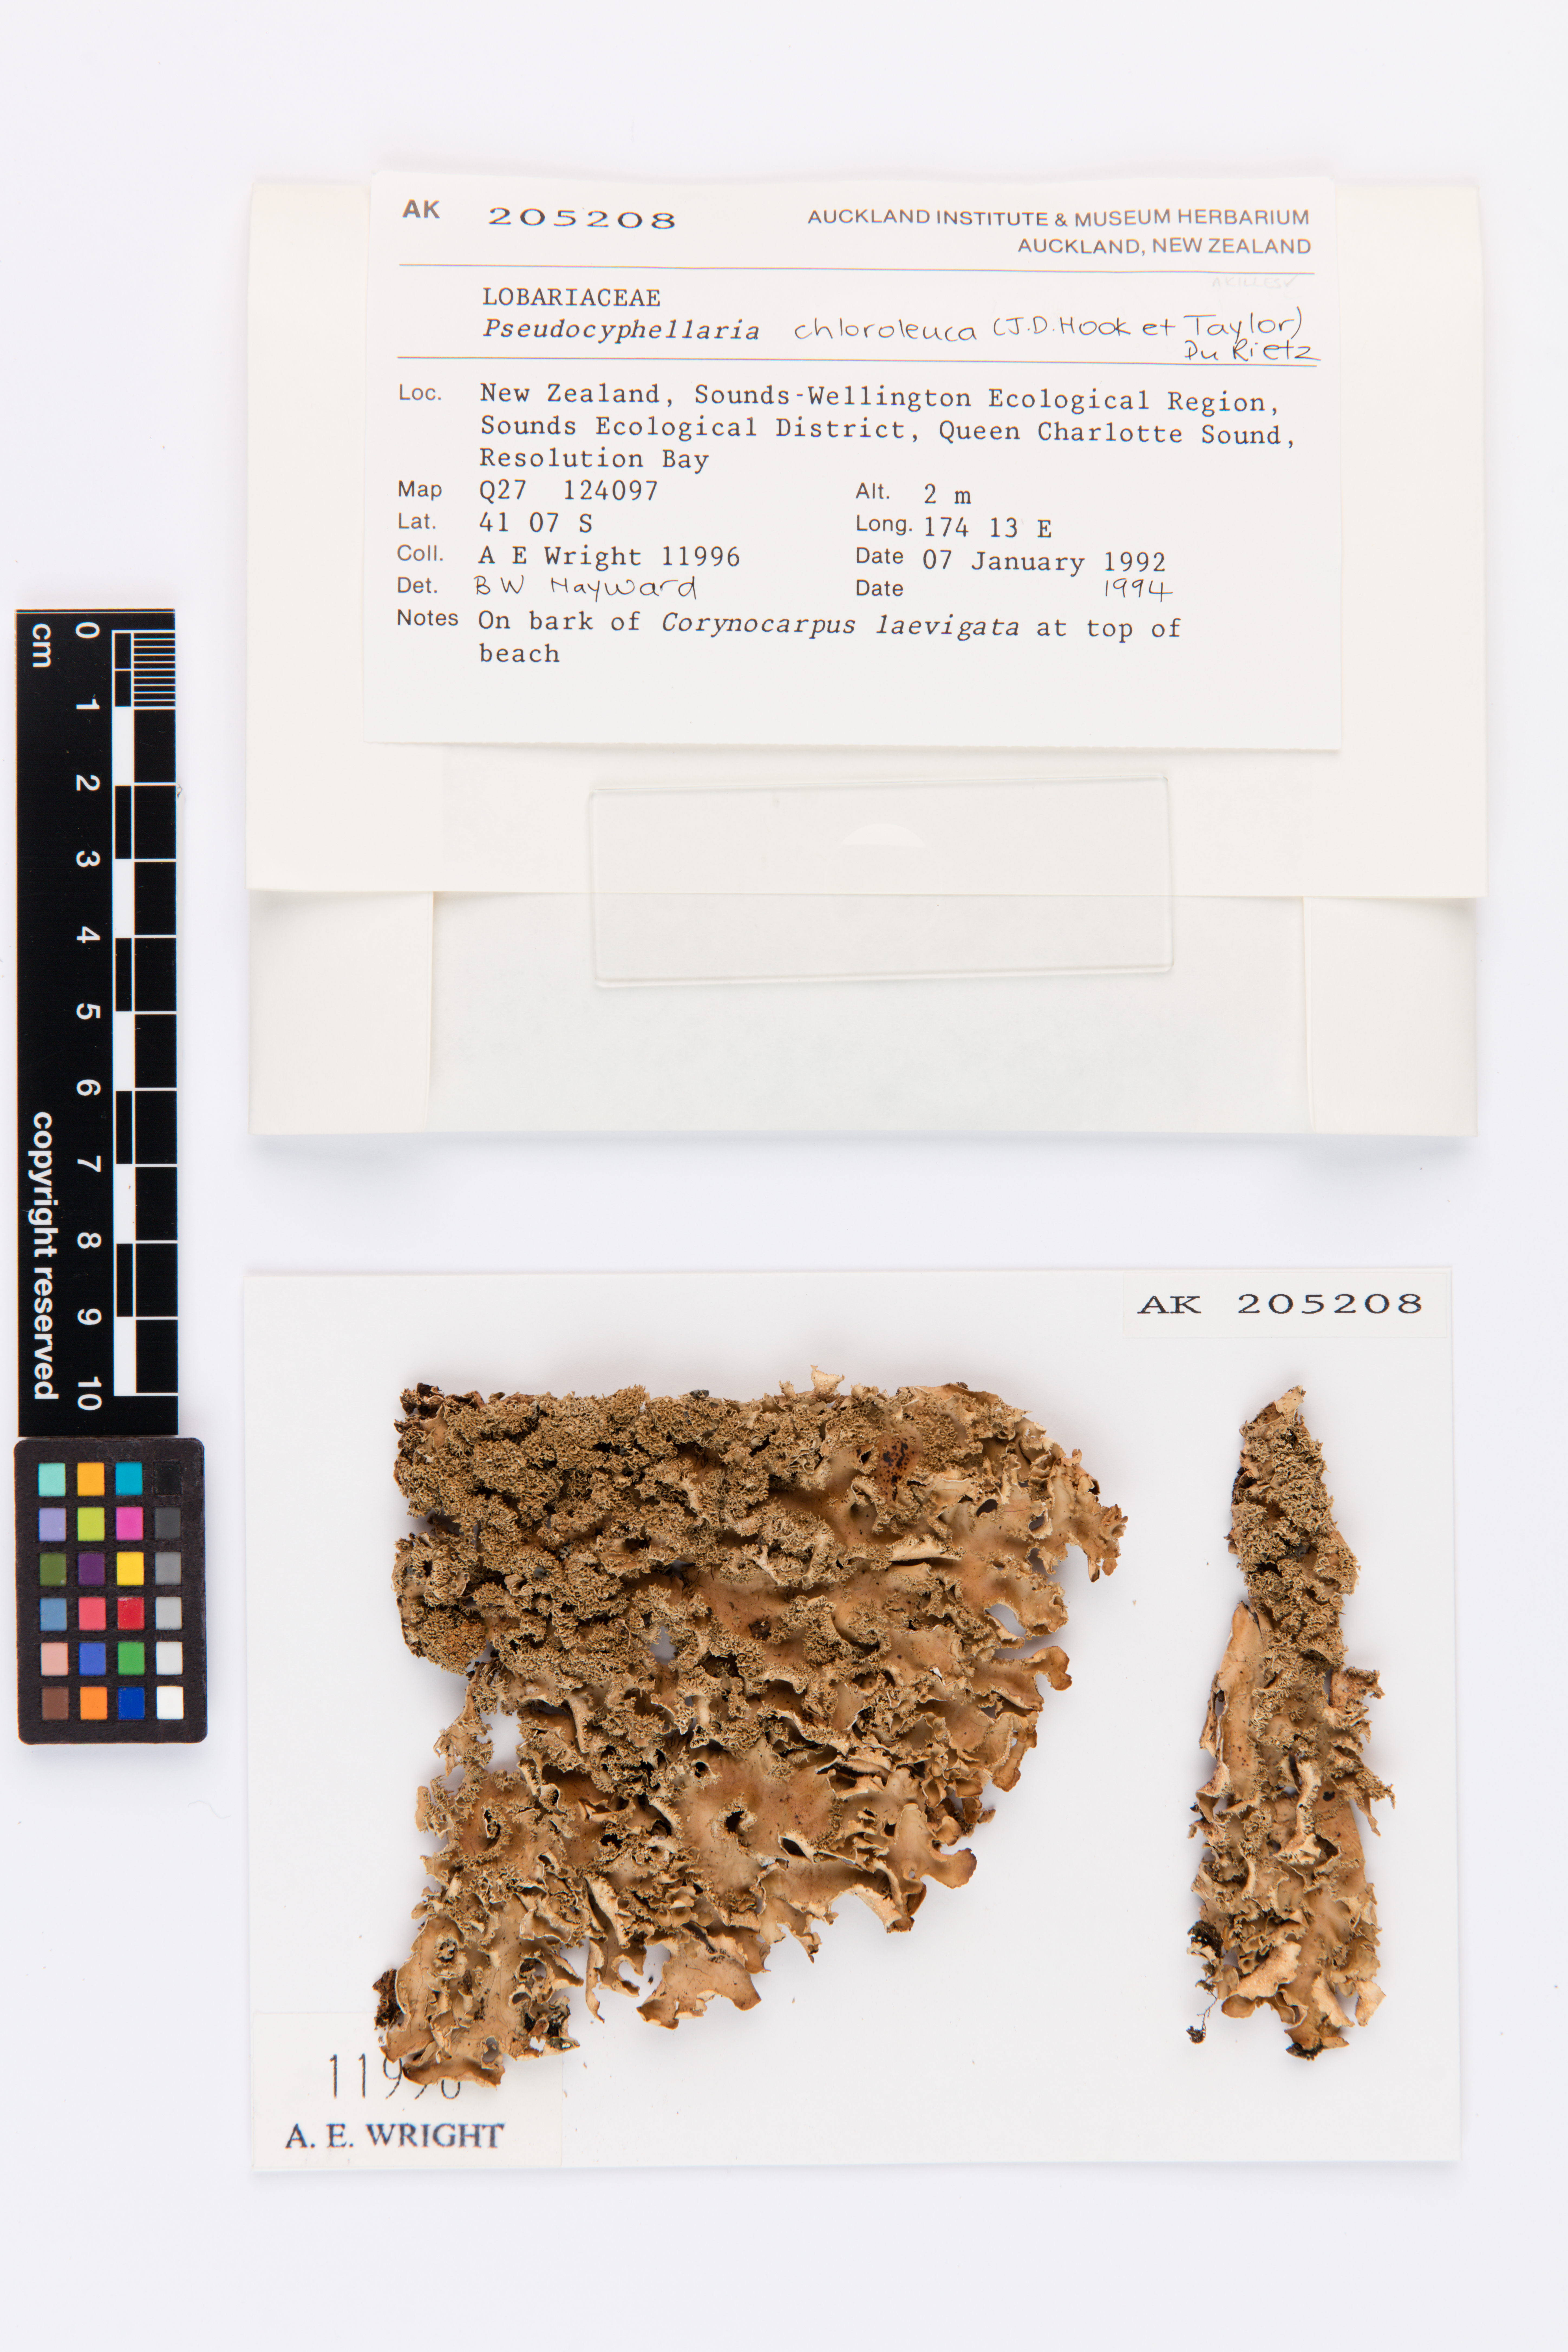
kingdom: Fungi
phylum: Ascomycota
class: Lecanoromycetes
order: Peltigerales
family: Lobariaceae
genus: Pseudocyphellaria
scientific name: Pseudocyphellaria chloroleuca
